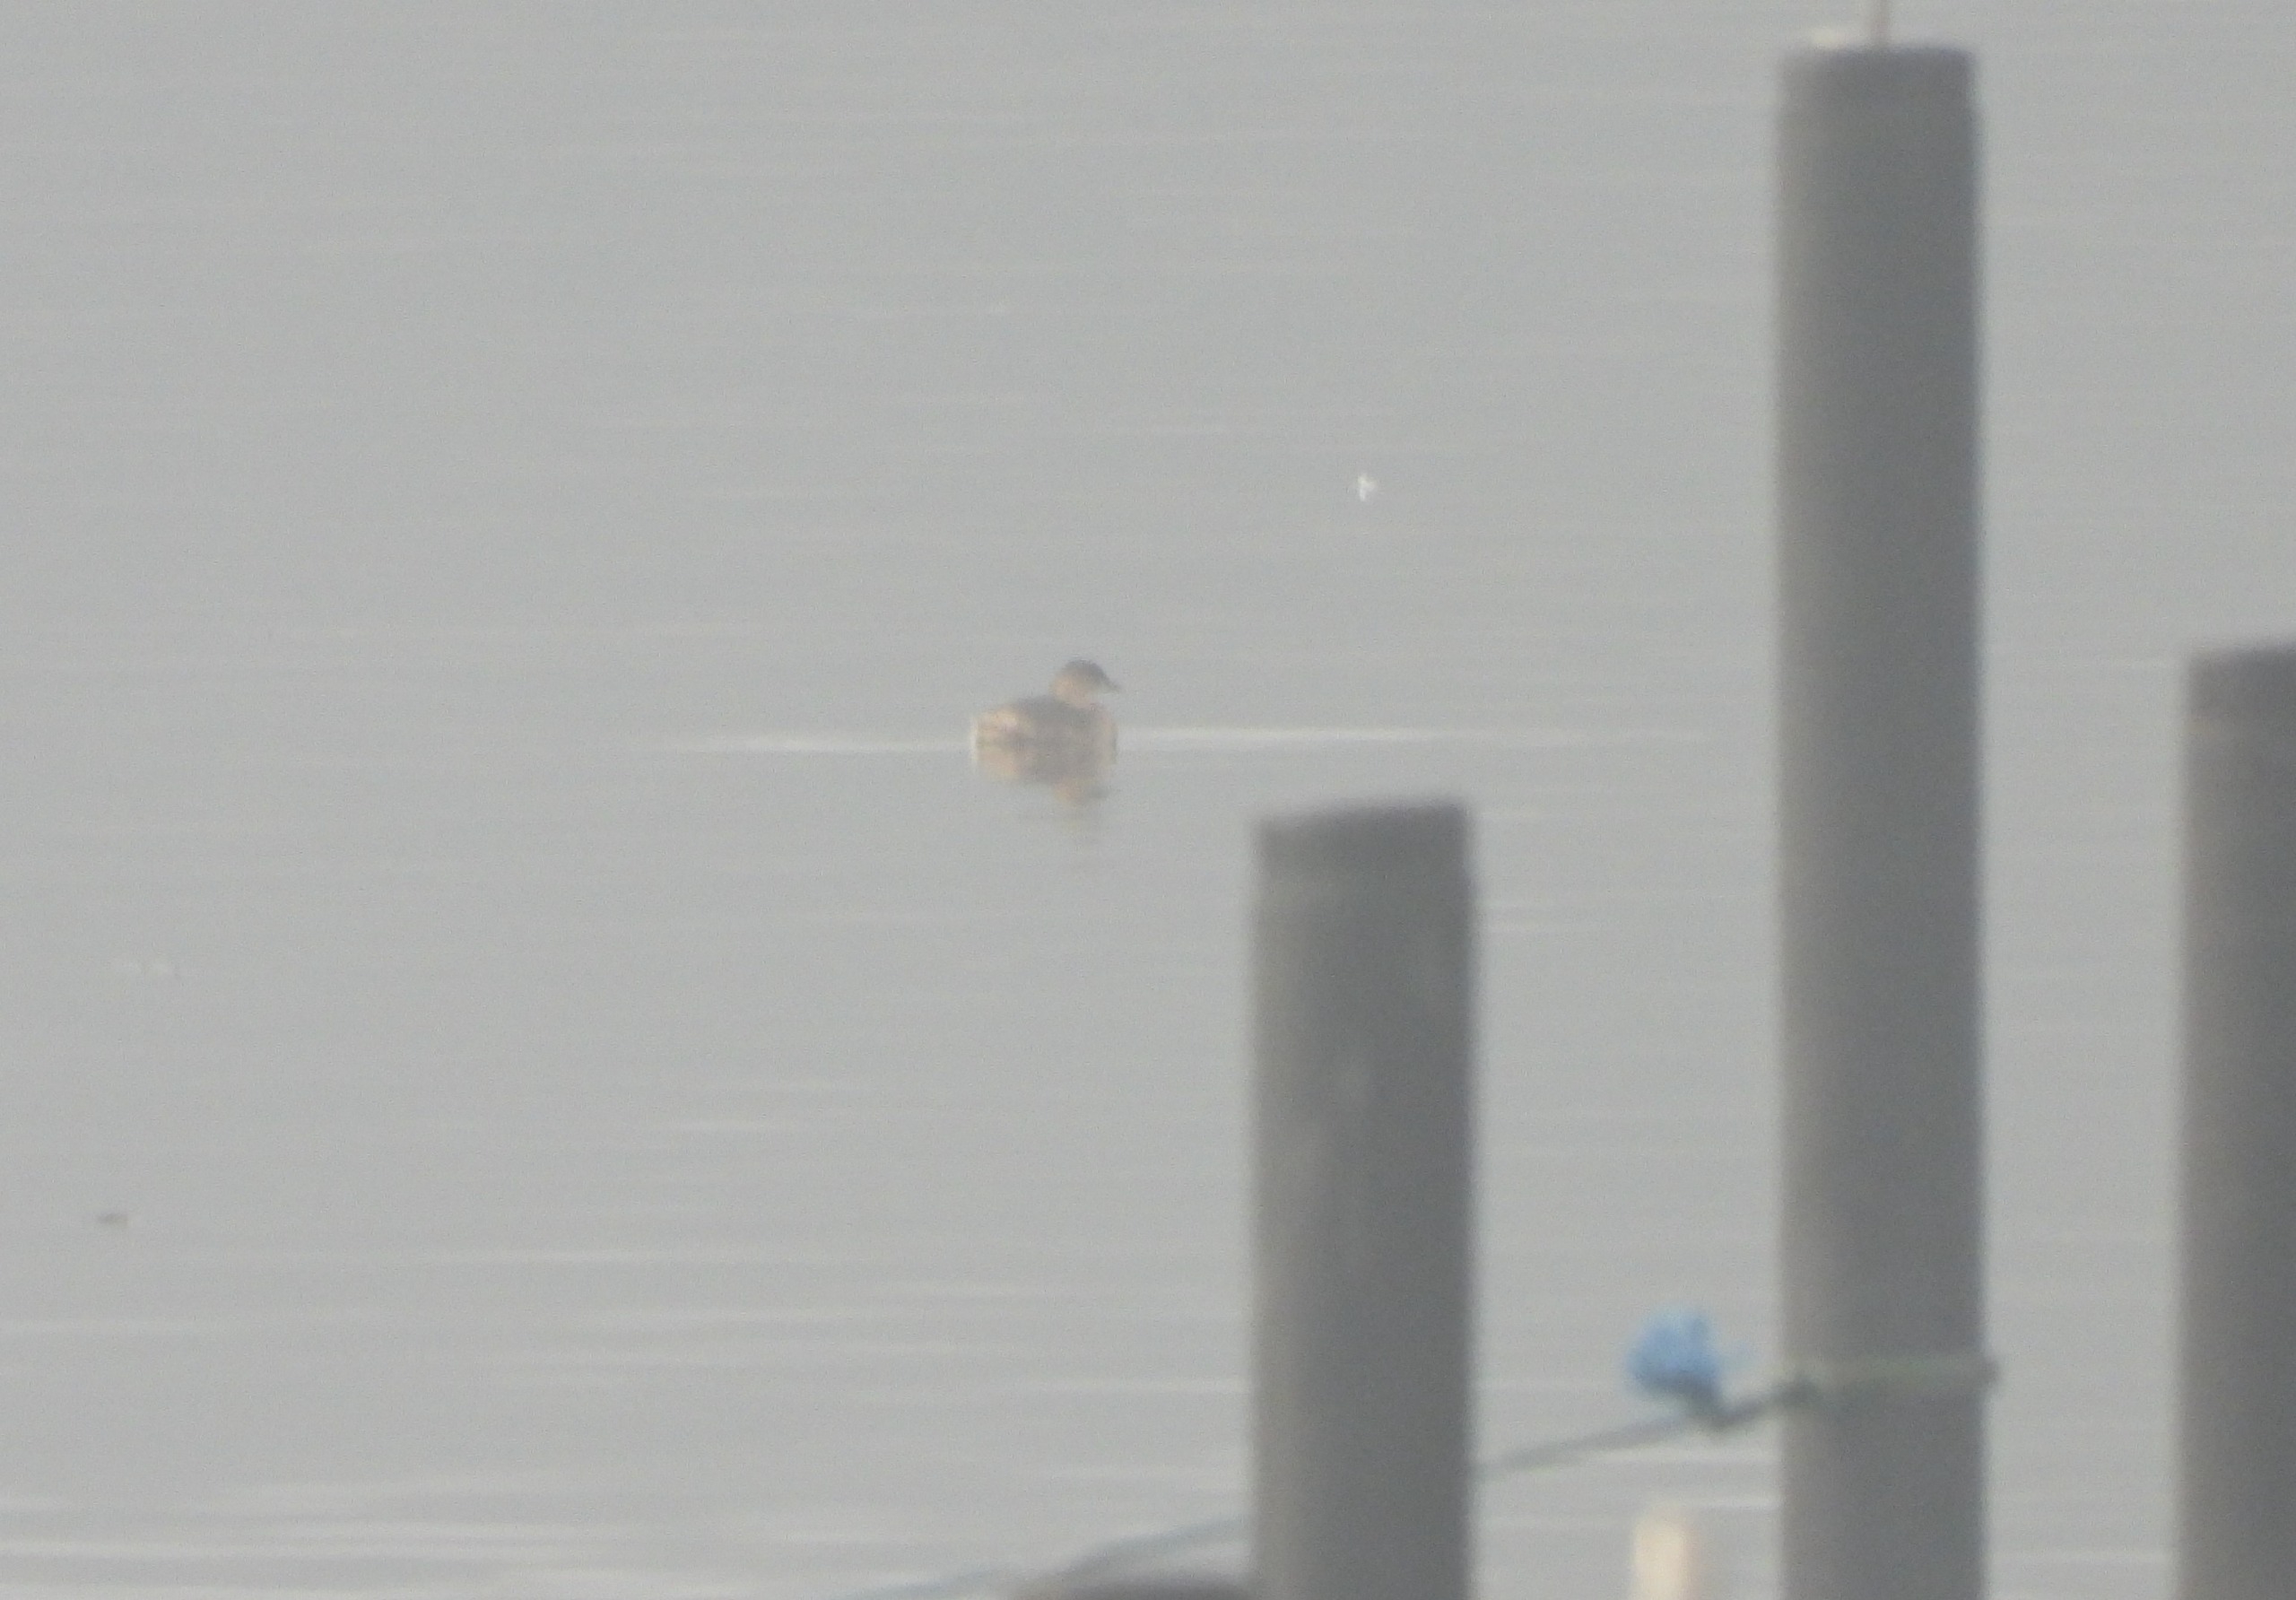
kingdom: Animalia
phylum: Chordata
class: Aves
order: Podicipediformes
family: Podicipedidae
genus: Tachybaptus
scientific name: Tachybaptus ruficollis
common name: Lille lappedykker
